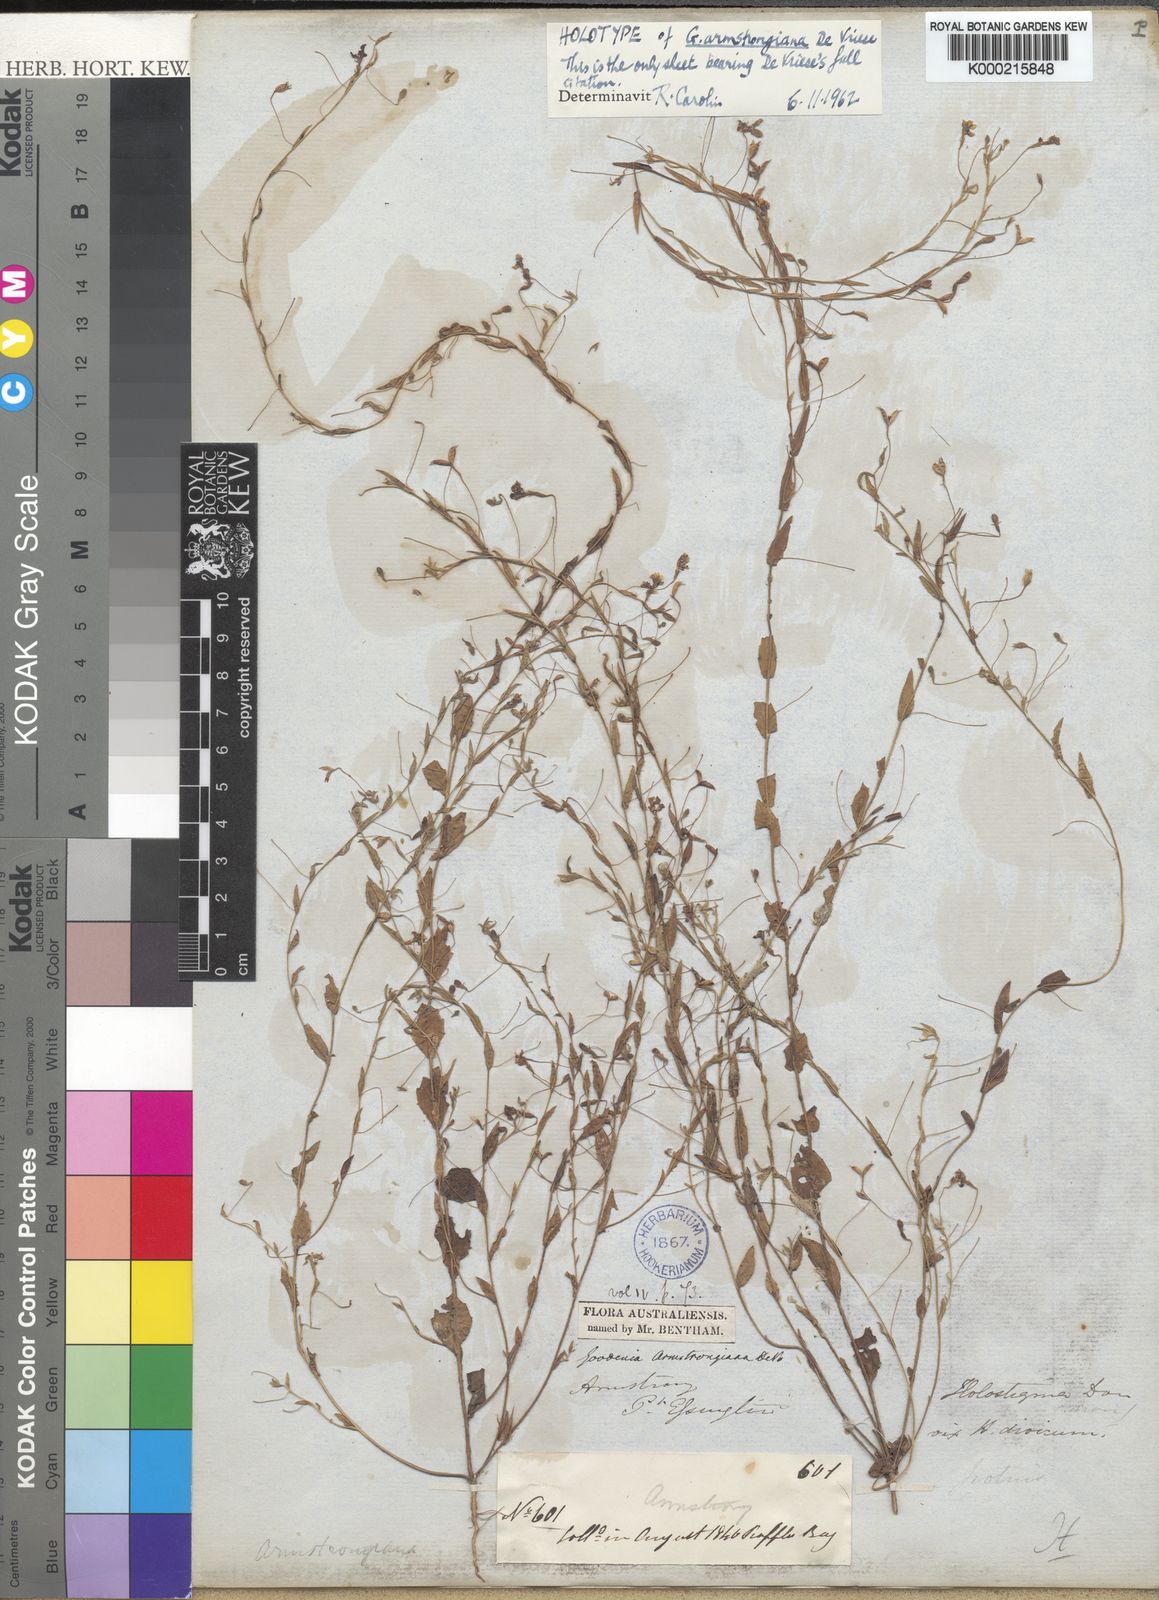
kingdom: Plantae
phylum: Tracheophyta
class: Magnoliopsida
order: Asterales
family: Goodeniaceae
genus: Goodenia
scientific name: Goodenia armstrongiana
